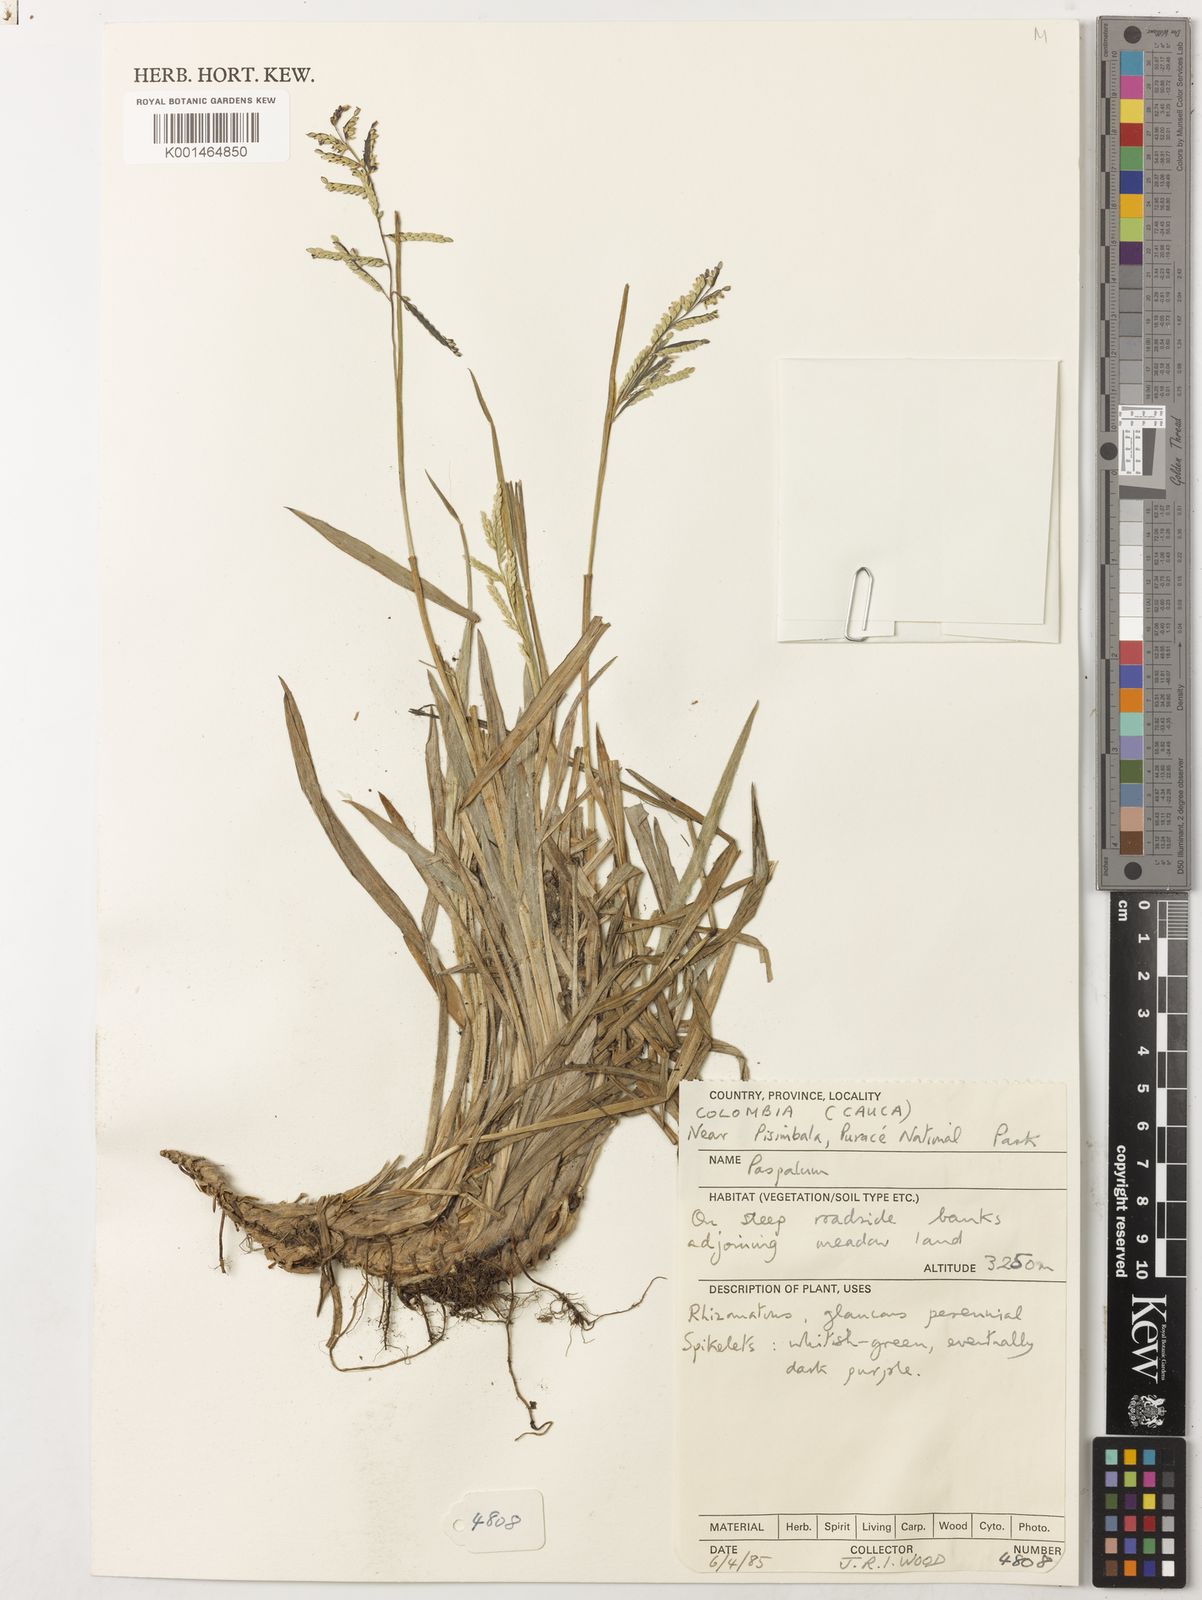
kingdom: Plantae
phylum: Tracheophyta
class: Liliopsida
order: Poales
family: Poaceae
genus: Paspalum
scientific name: Paspalum
